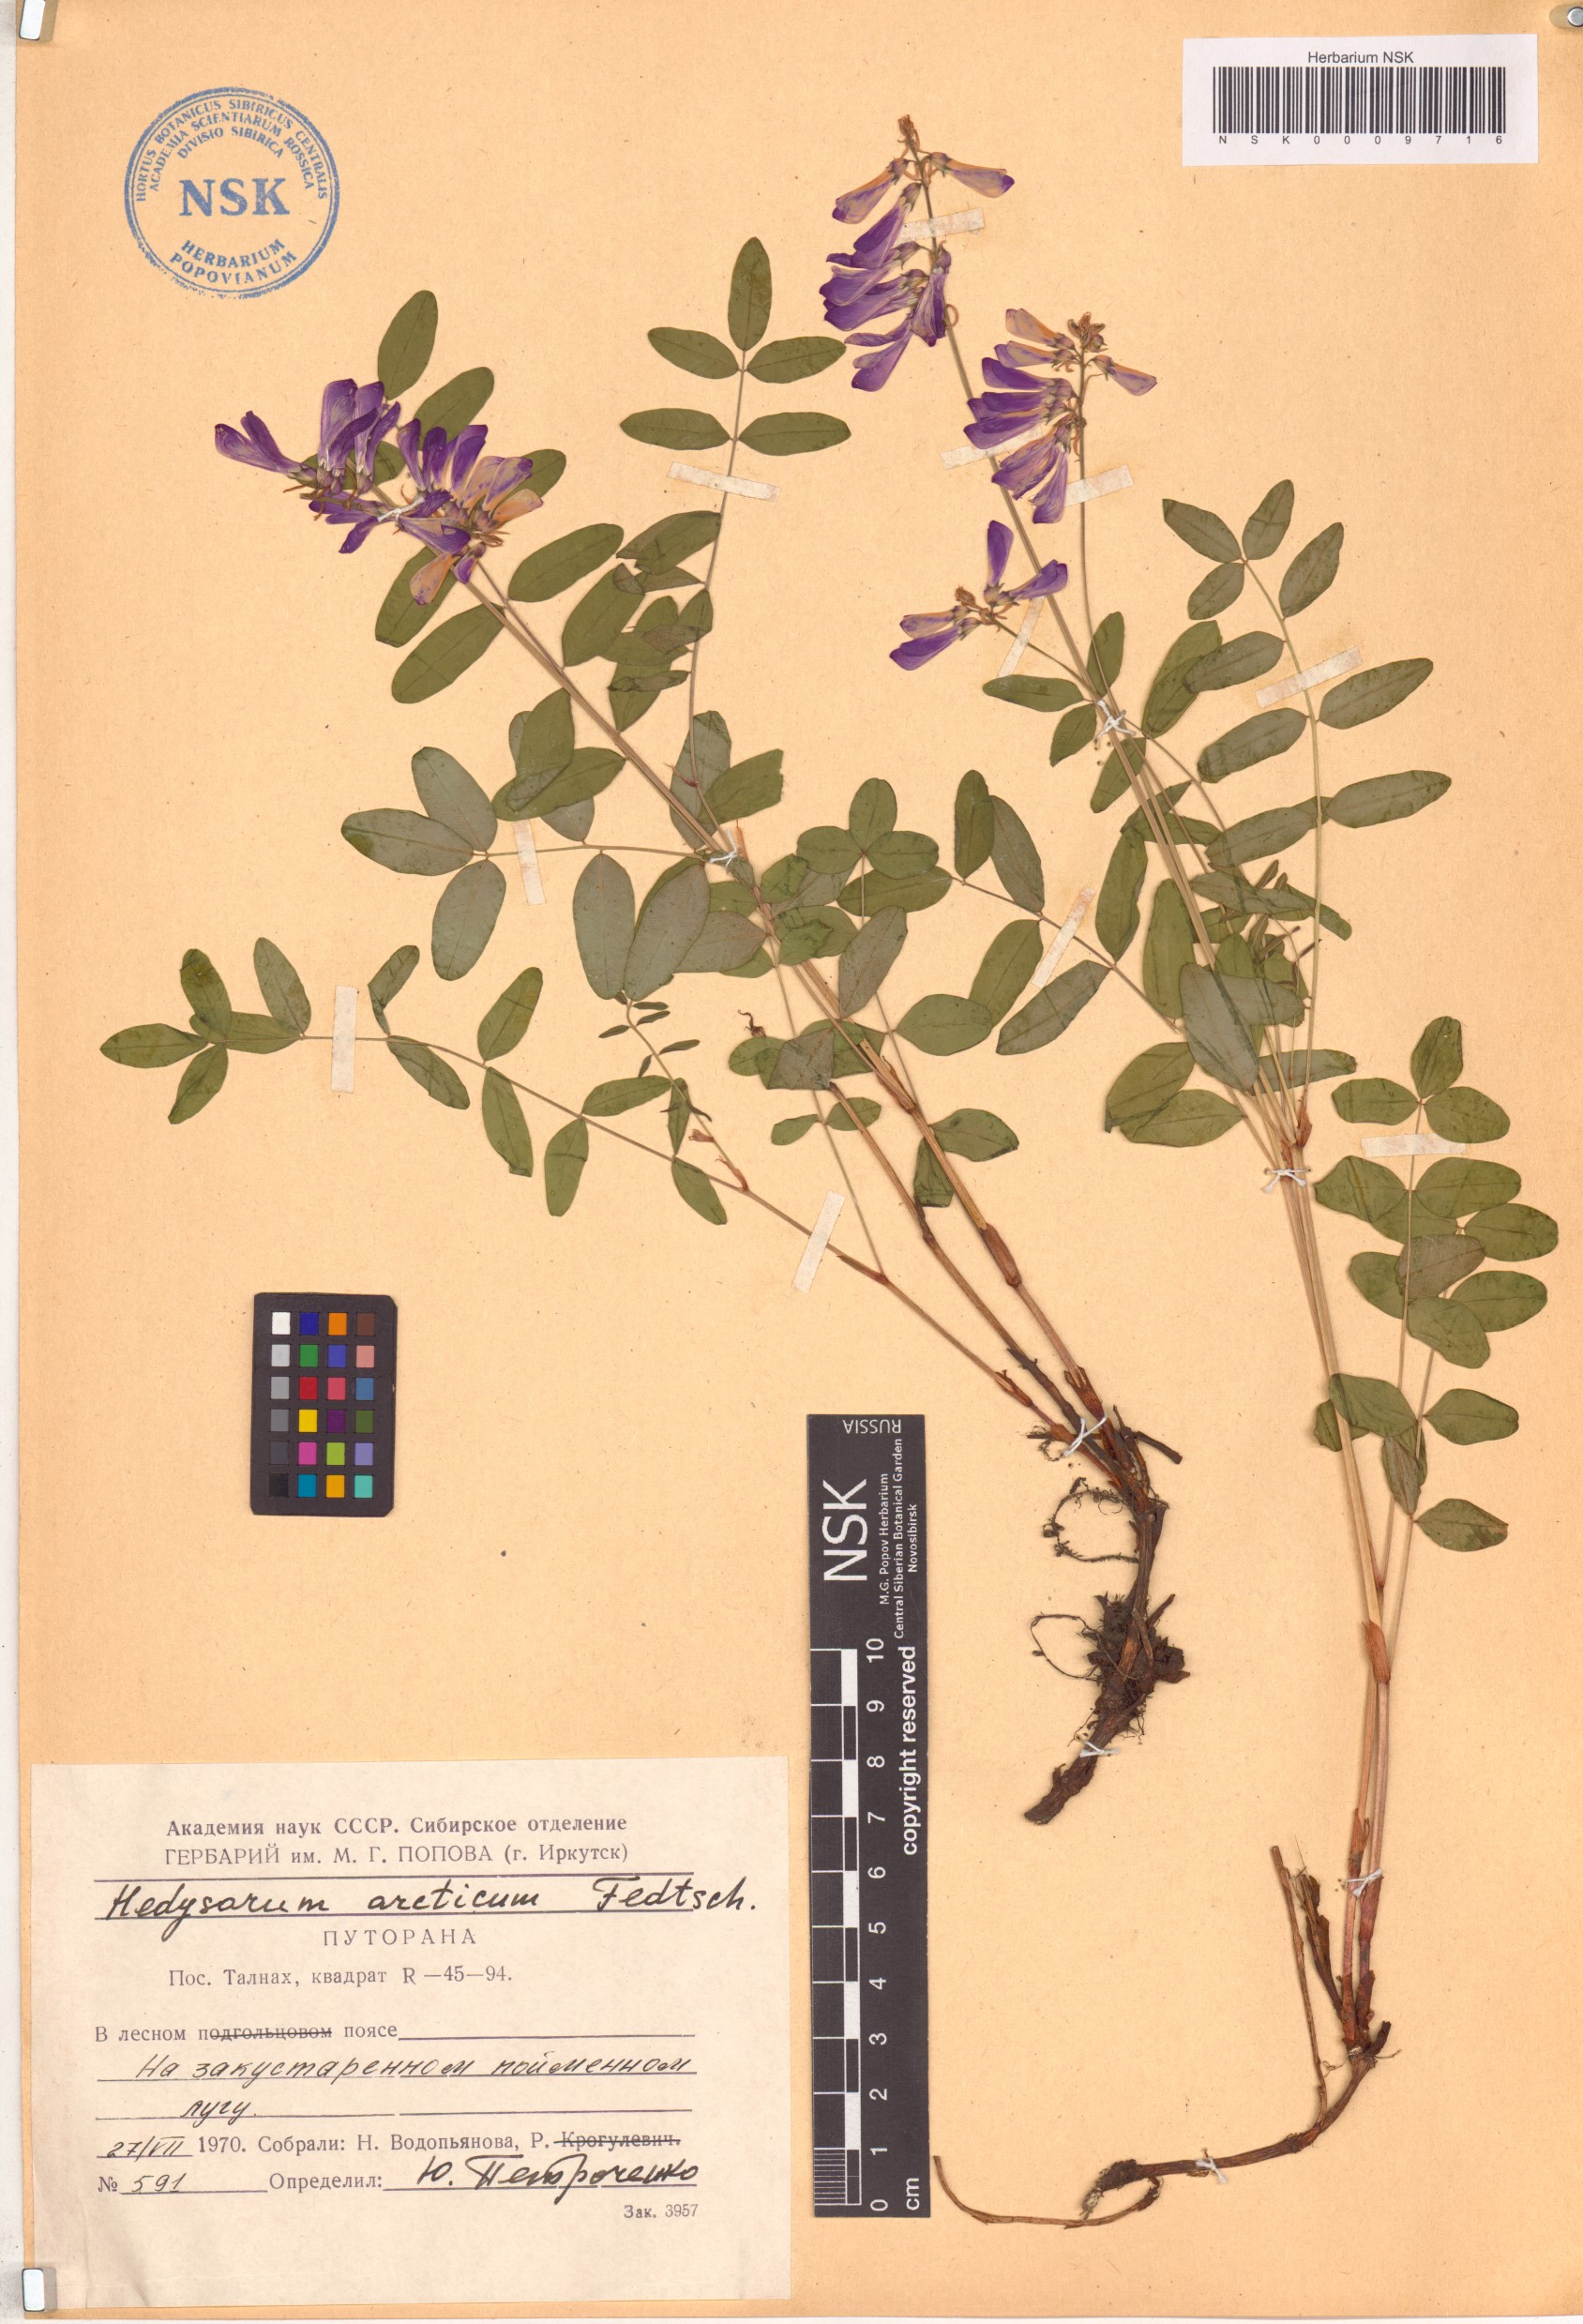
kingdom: Plantae
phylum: Tracheophyta
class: Magnoliopsida
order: Fabales
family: Fabaceae
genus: Hedysarum
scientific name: Hedysarum hedysaroides
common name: Alpine french-honeysuckle
